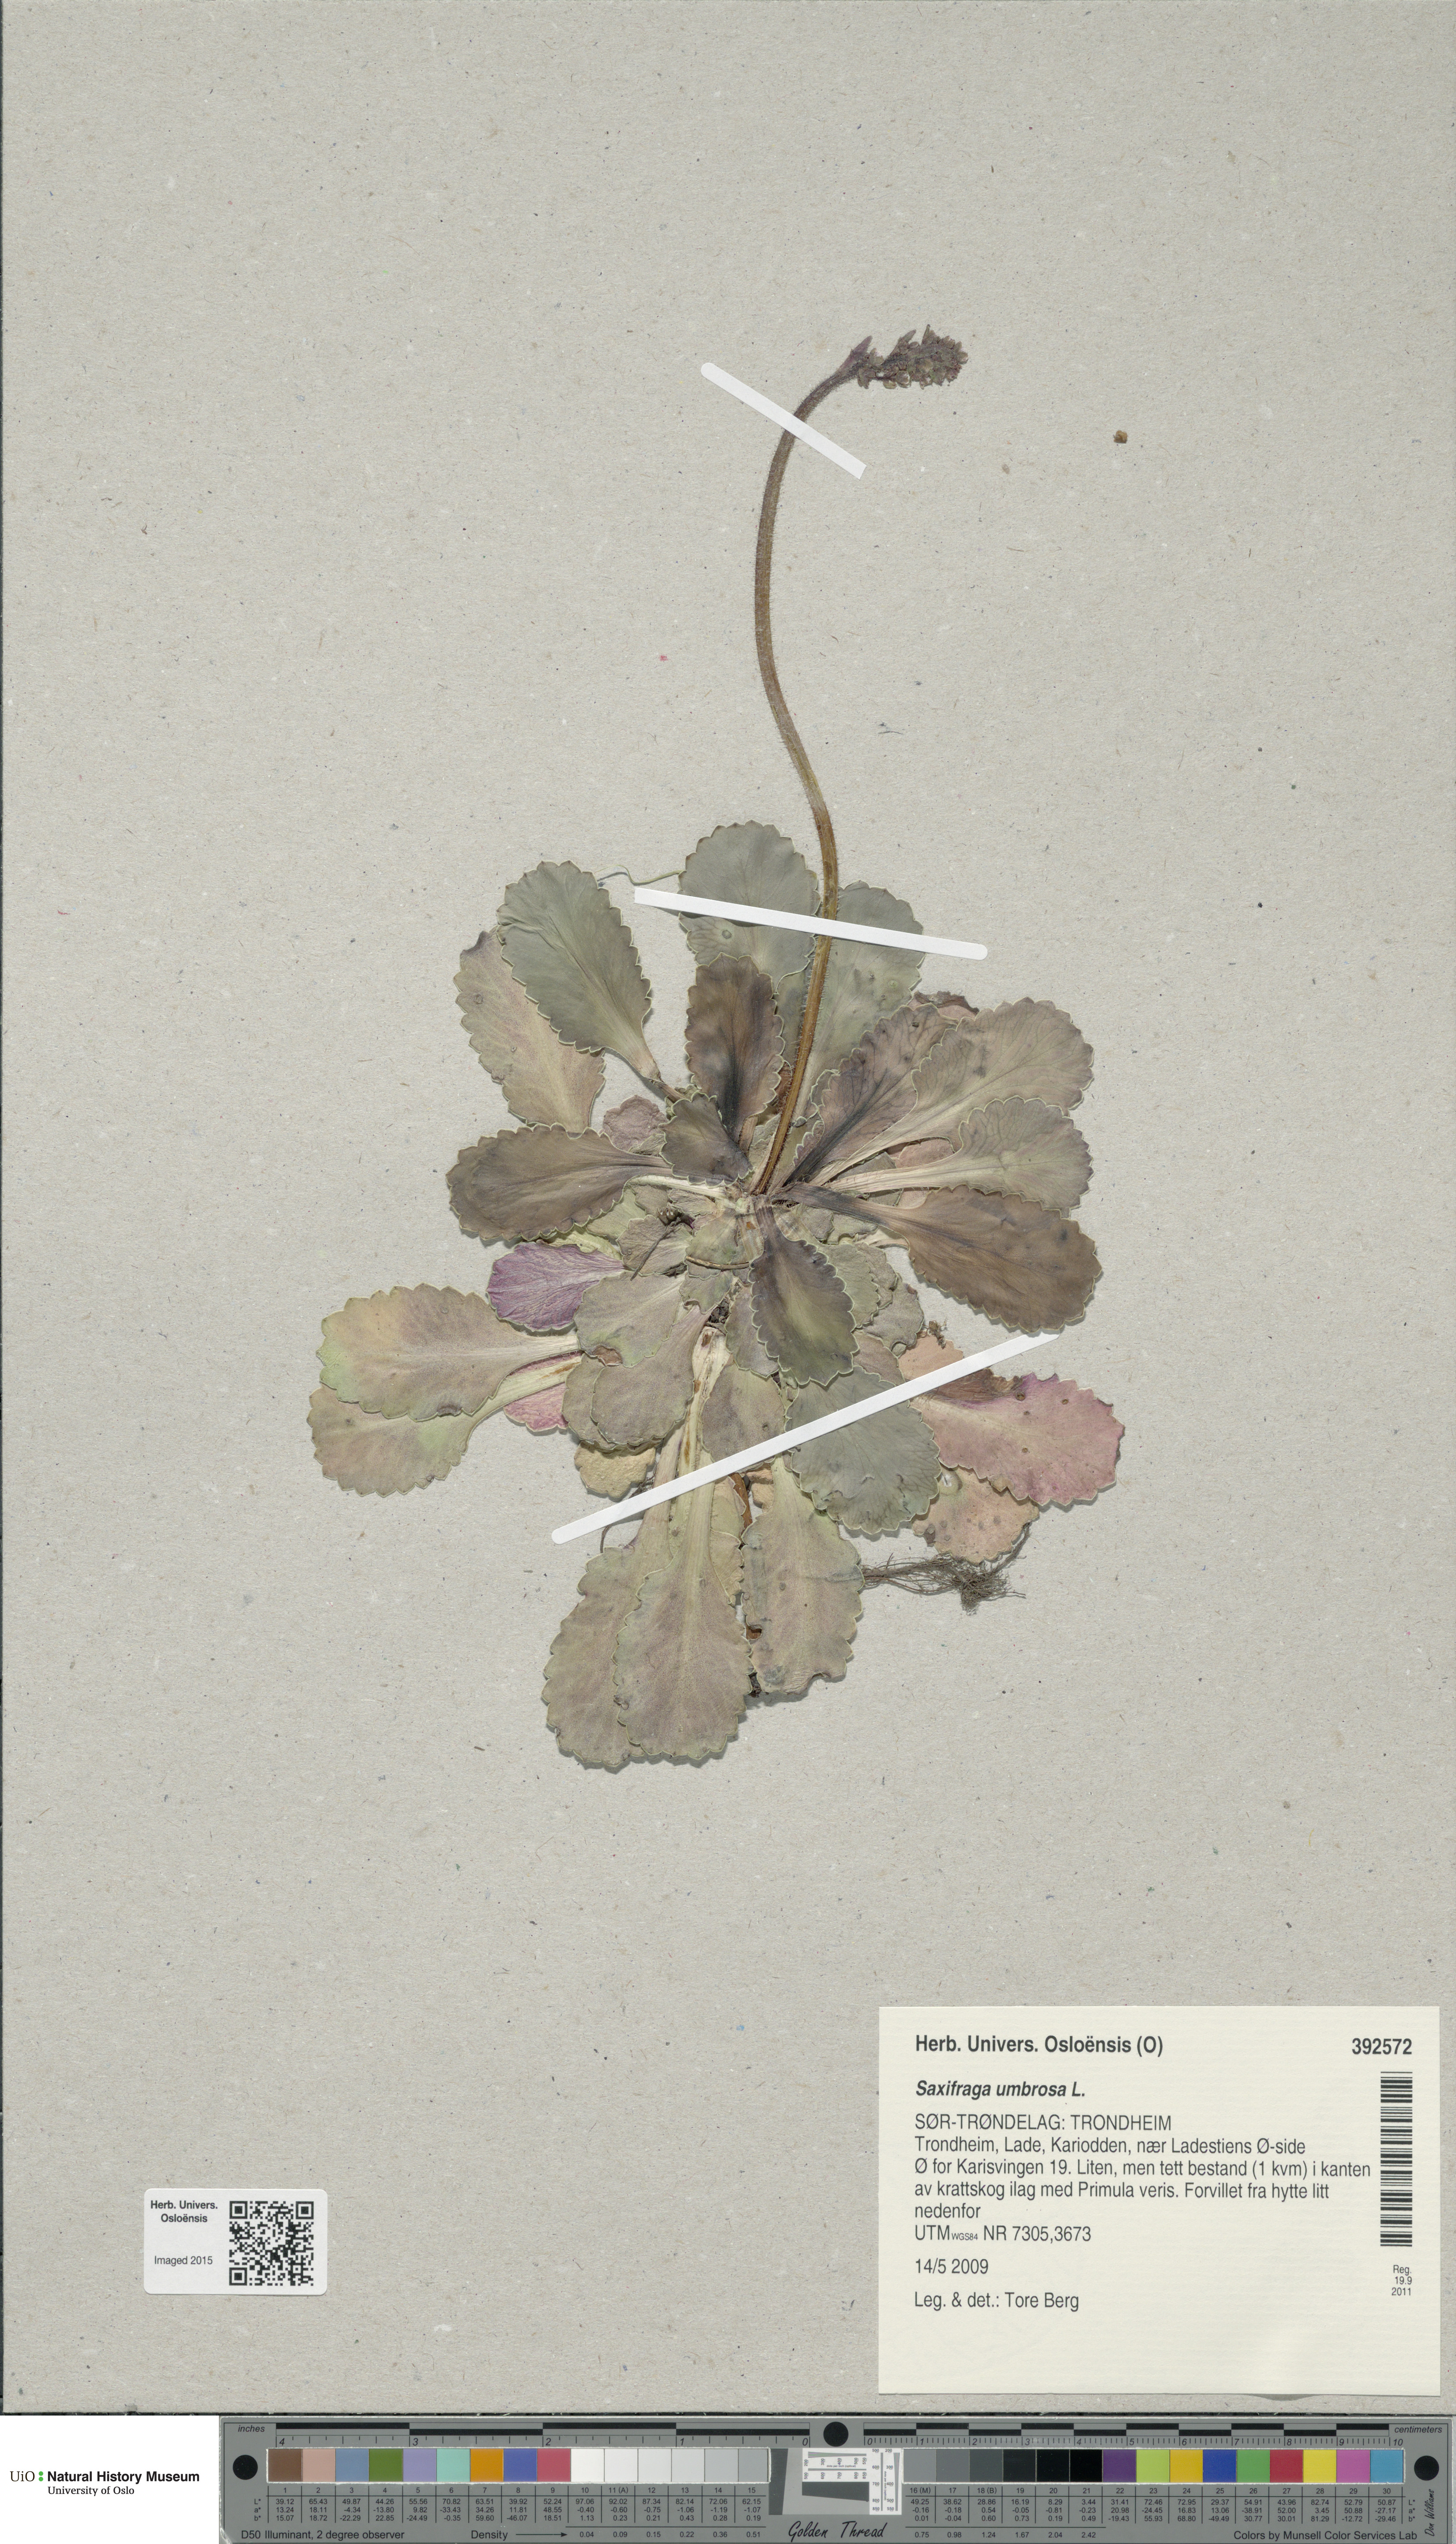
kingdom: Plantae
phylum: Tracheophyta
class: Magnoliopsida
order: Saxifragales
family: Saxifragaceae
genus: Saxifraga
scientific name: Saxifraga umbrosa
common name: Pyrenean saxifrage
